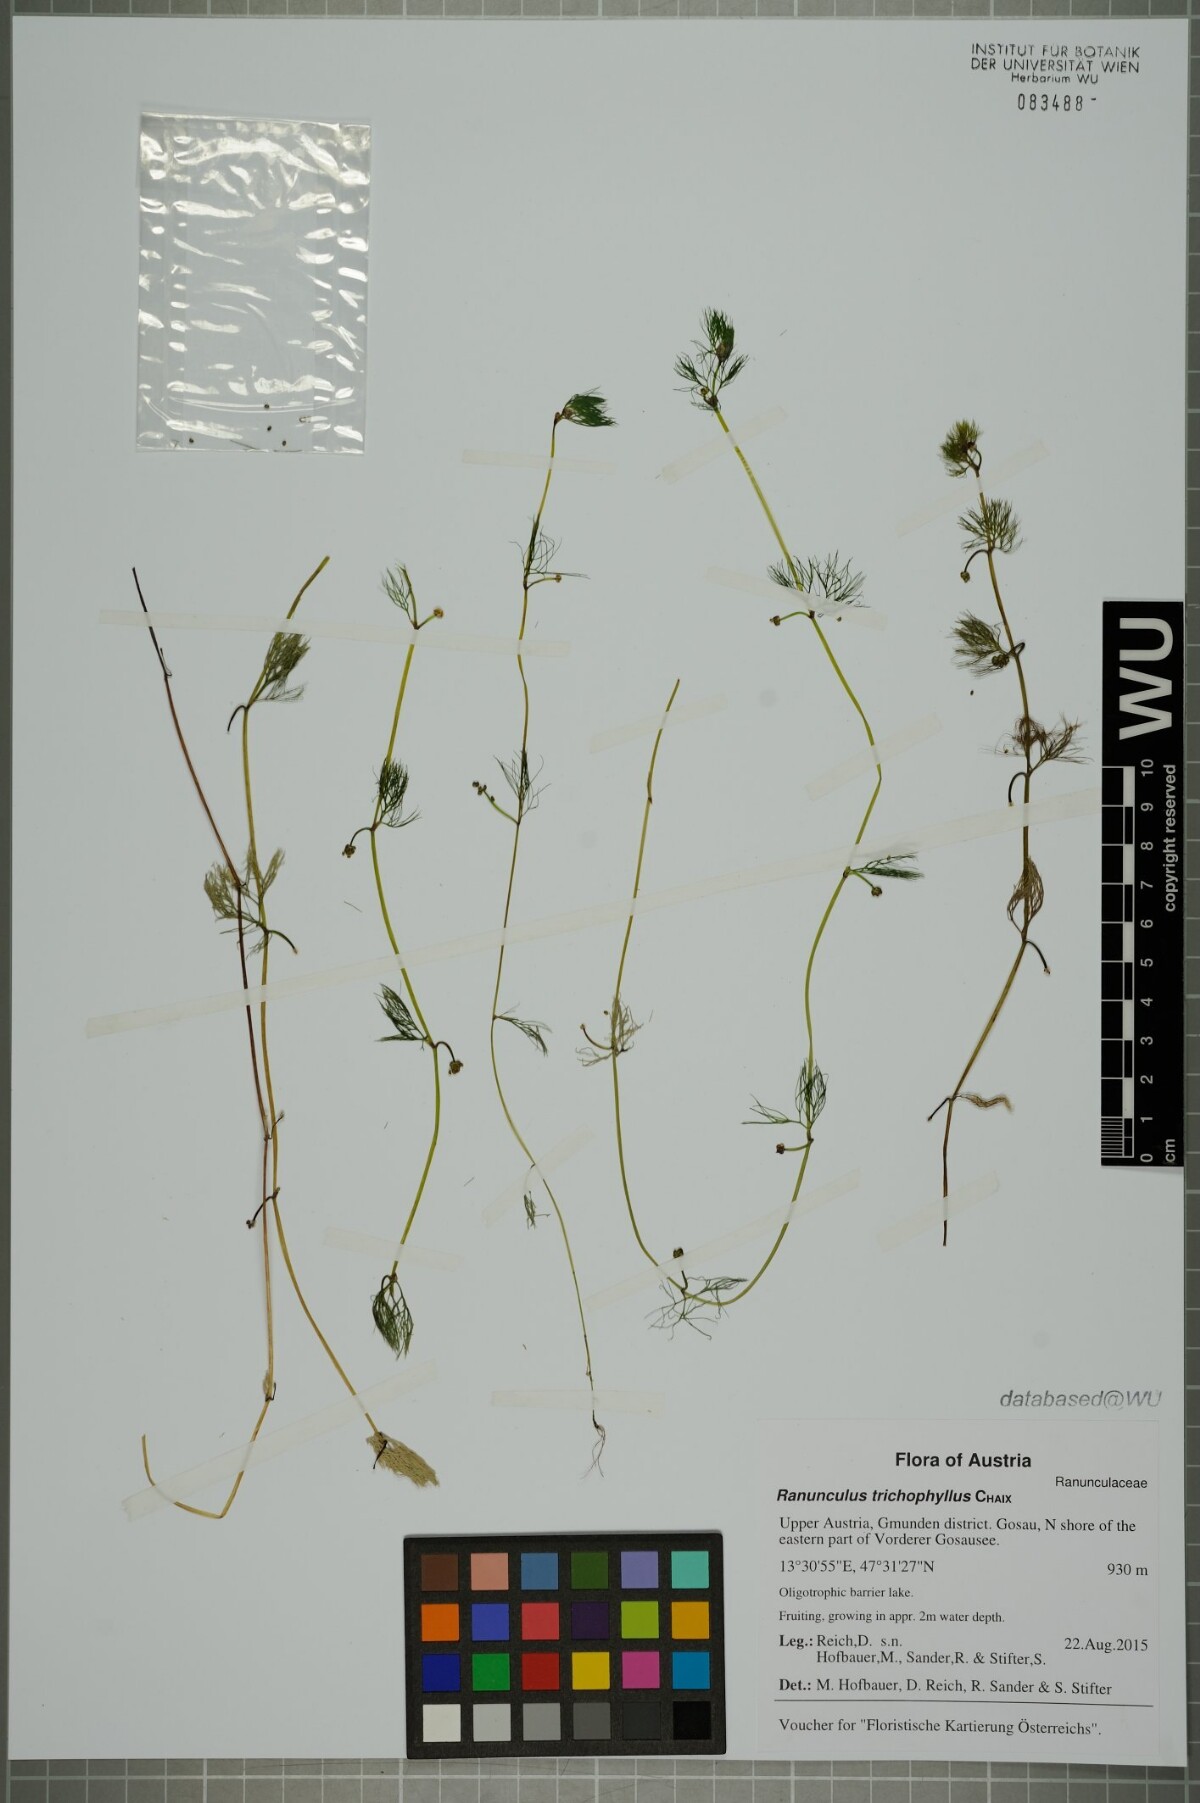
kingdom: Plantae
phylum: Tracheophyta
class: Magnoliopsida
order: Ranunculales
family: Ranunculaceae
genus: Ranunculus
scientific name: Ranunculus trichophyllus
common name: Thread-leaved water-crowfoot
